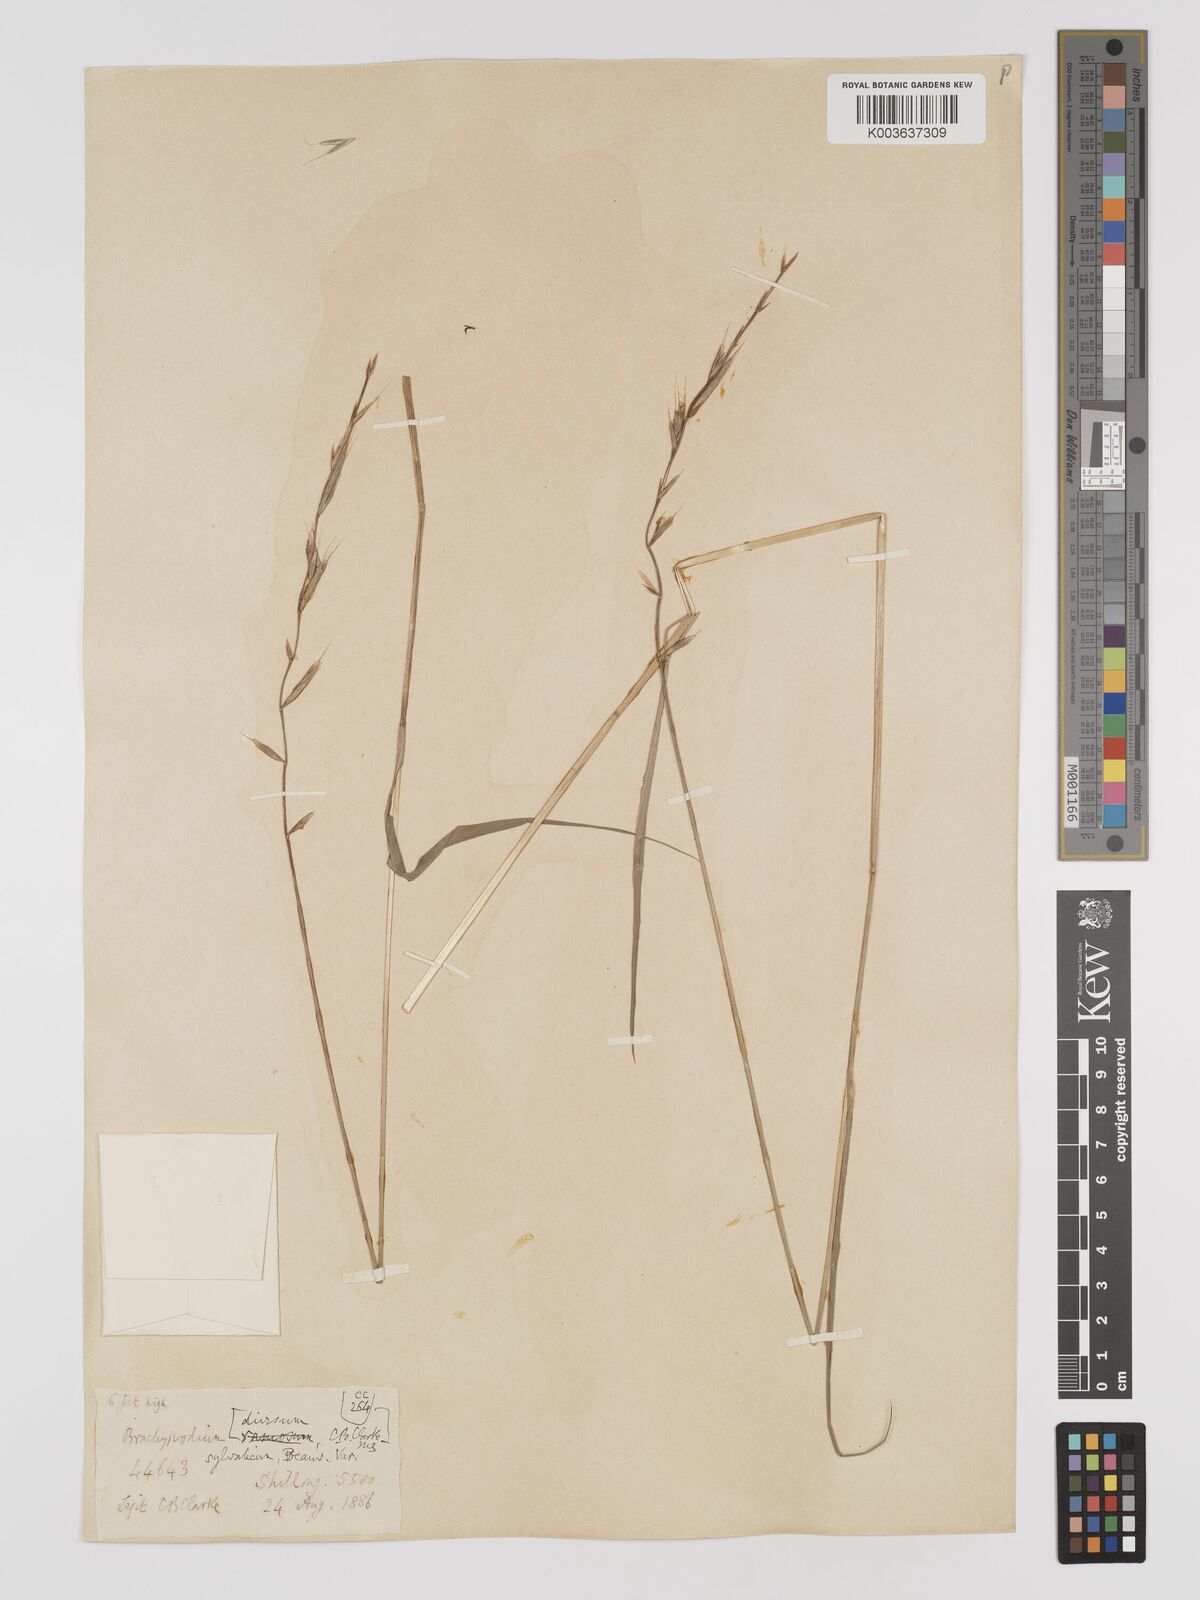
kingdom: Plantae
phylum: Tracheophyta
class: Liliopsida
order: Poales
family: Poaceae
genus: Brachypodium
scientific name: Brachypodium sylvaticum
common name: False-brome
